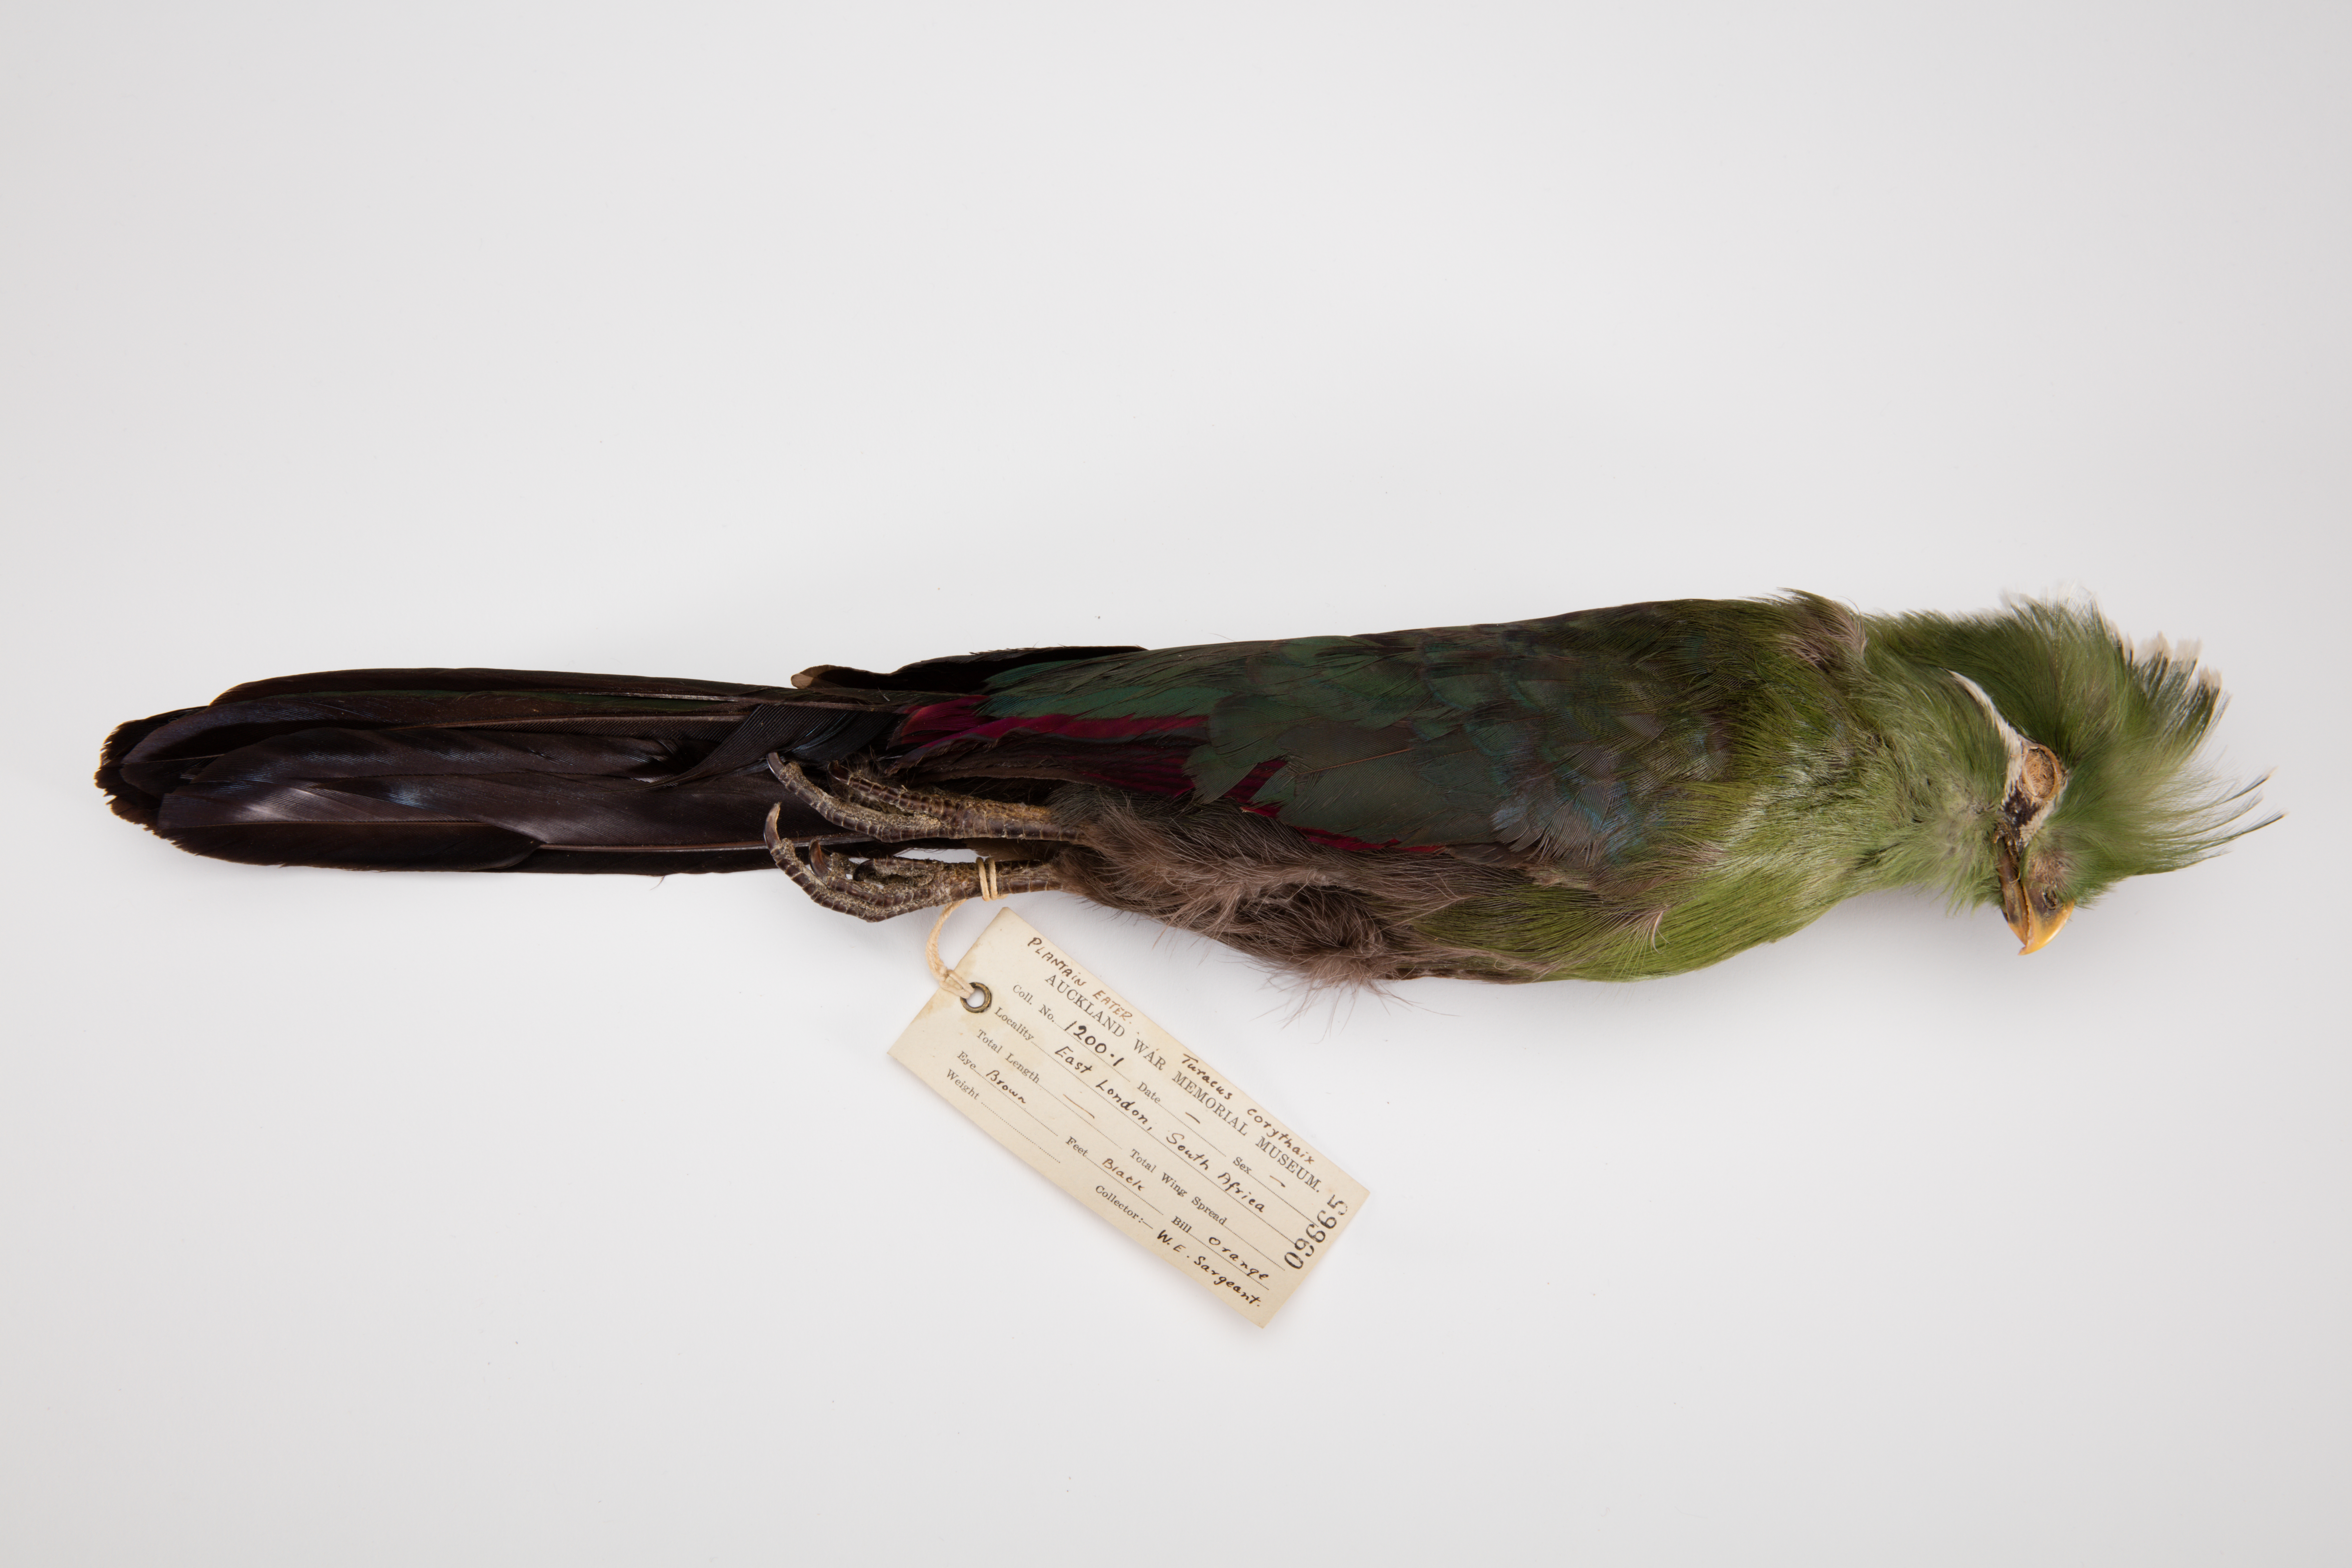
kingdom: Animalia
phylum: Chordata
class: Aves
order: Musophagiformes
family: Musophagidae
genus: Tauraco
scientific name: Tauraco persa
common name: Guinea turaco
